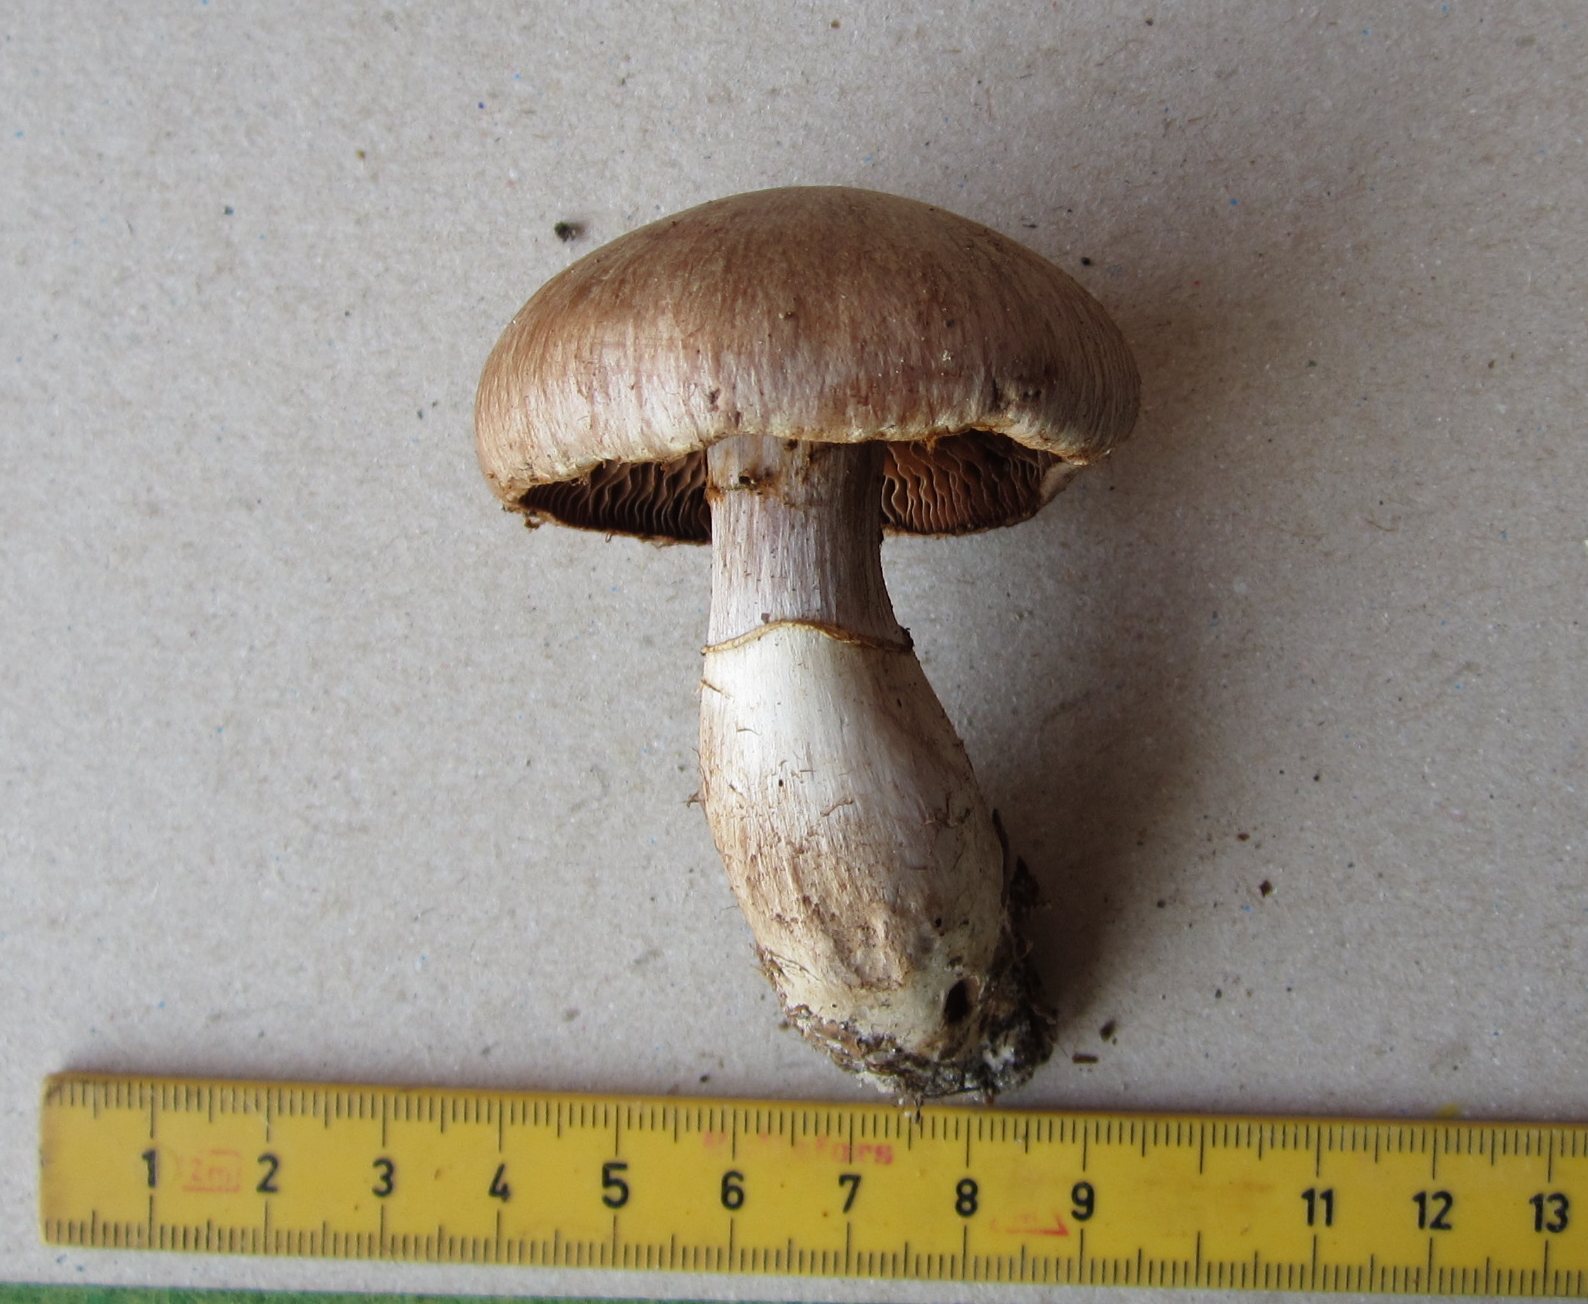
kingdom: Fungi
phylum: Basidiomycota
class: Agaricomycetes
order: Agaricales
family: Cortinariaceae
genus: Cortinarius
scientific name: Cortinarius torvus
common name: champignonagtig slørhat
